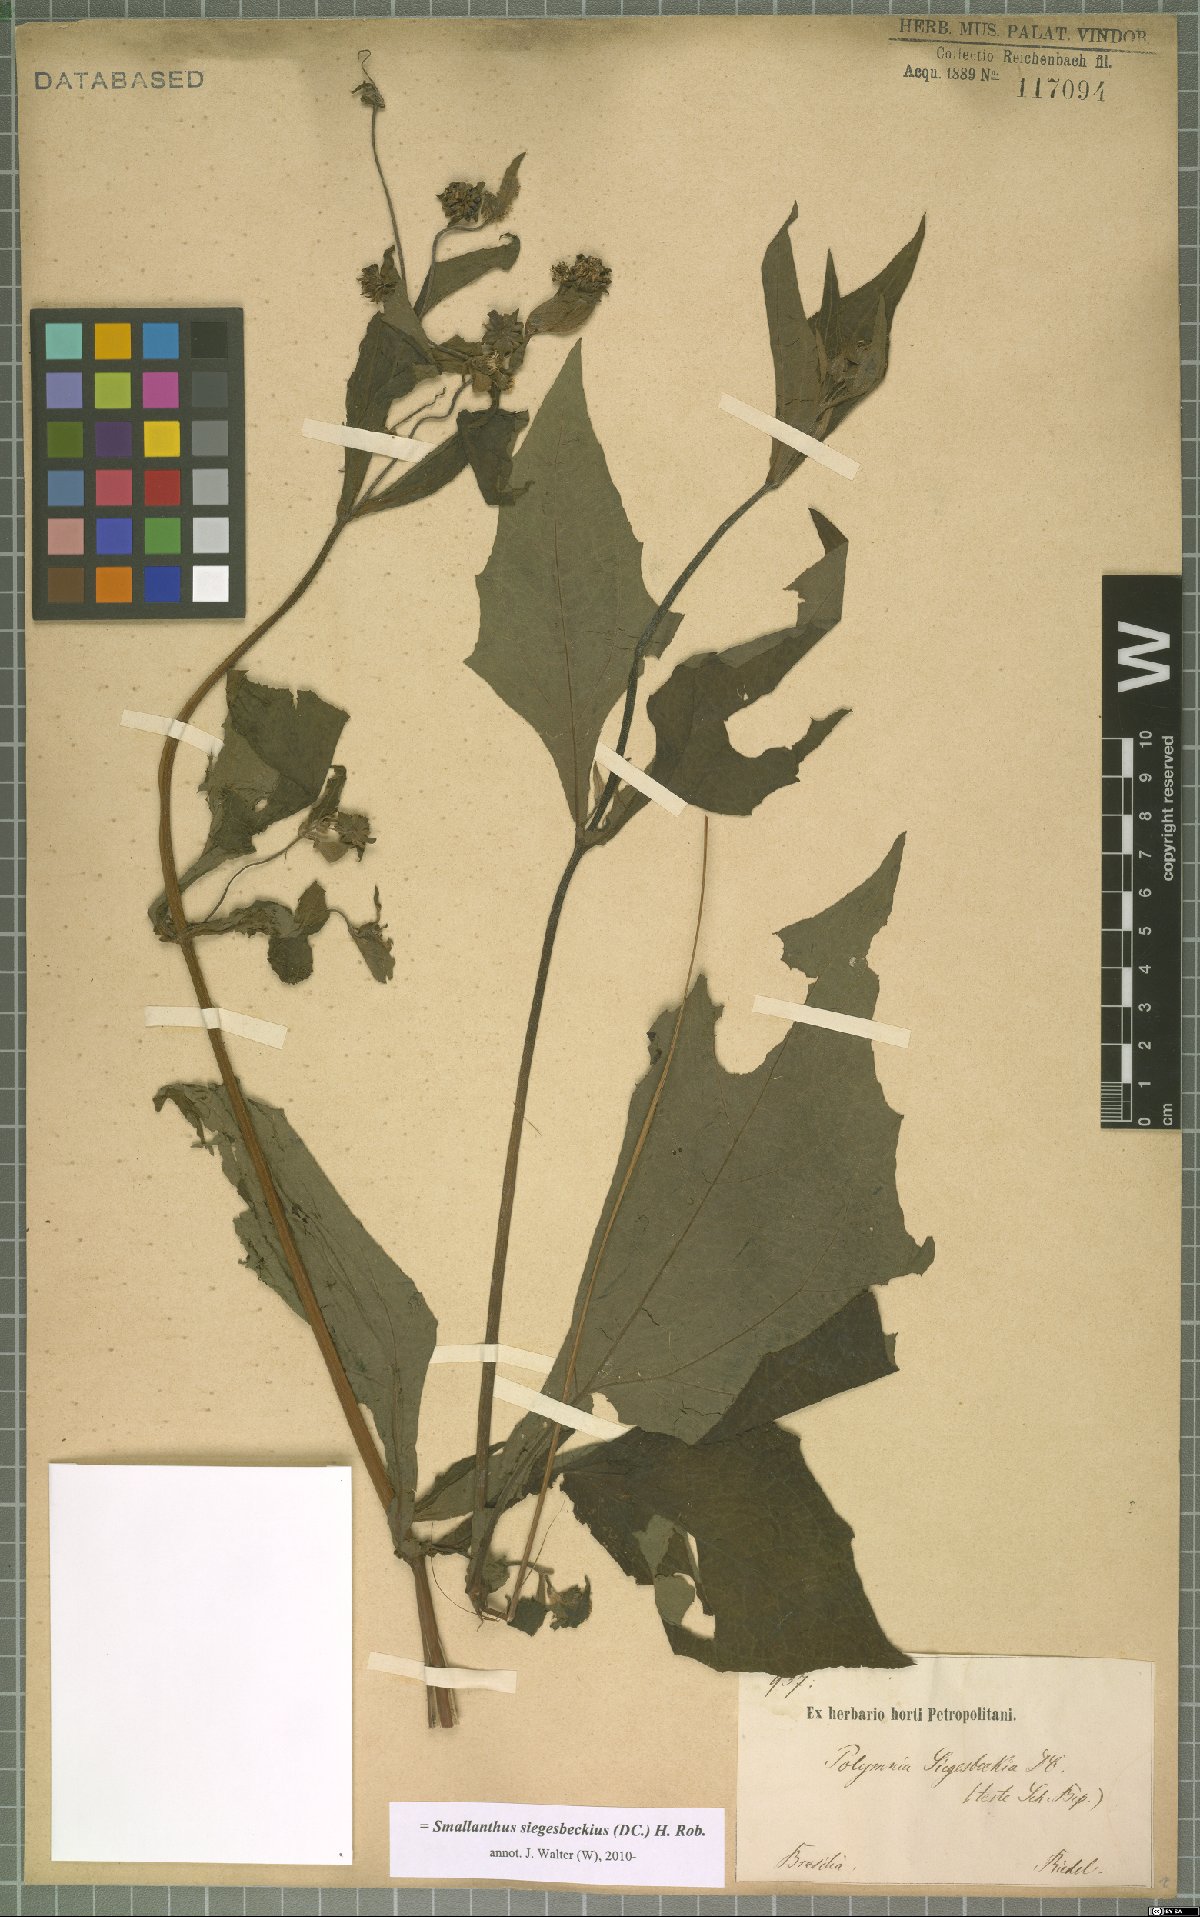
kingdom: Plantae
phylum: Tracheophyta
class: Magnoliopsida
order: Asterales
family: Asteraceae
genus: Smallanthus
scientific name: Smallanthus siegesbeckius
